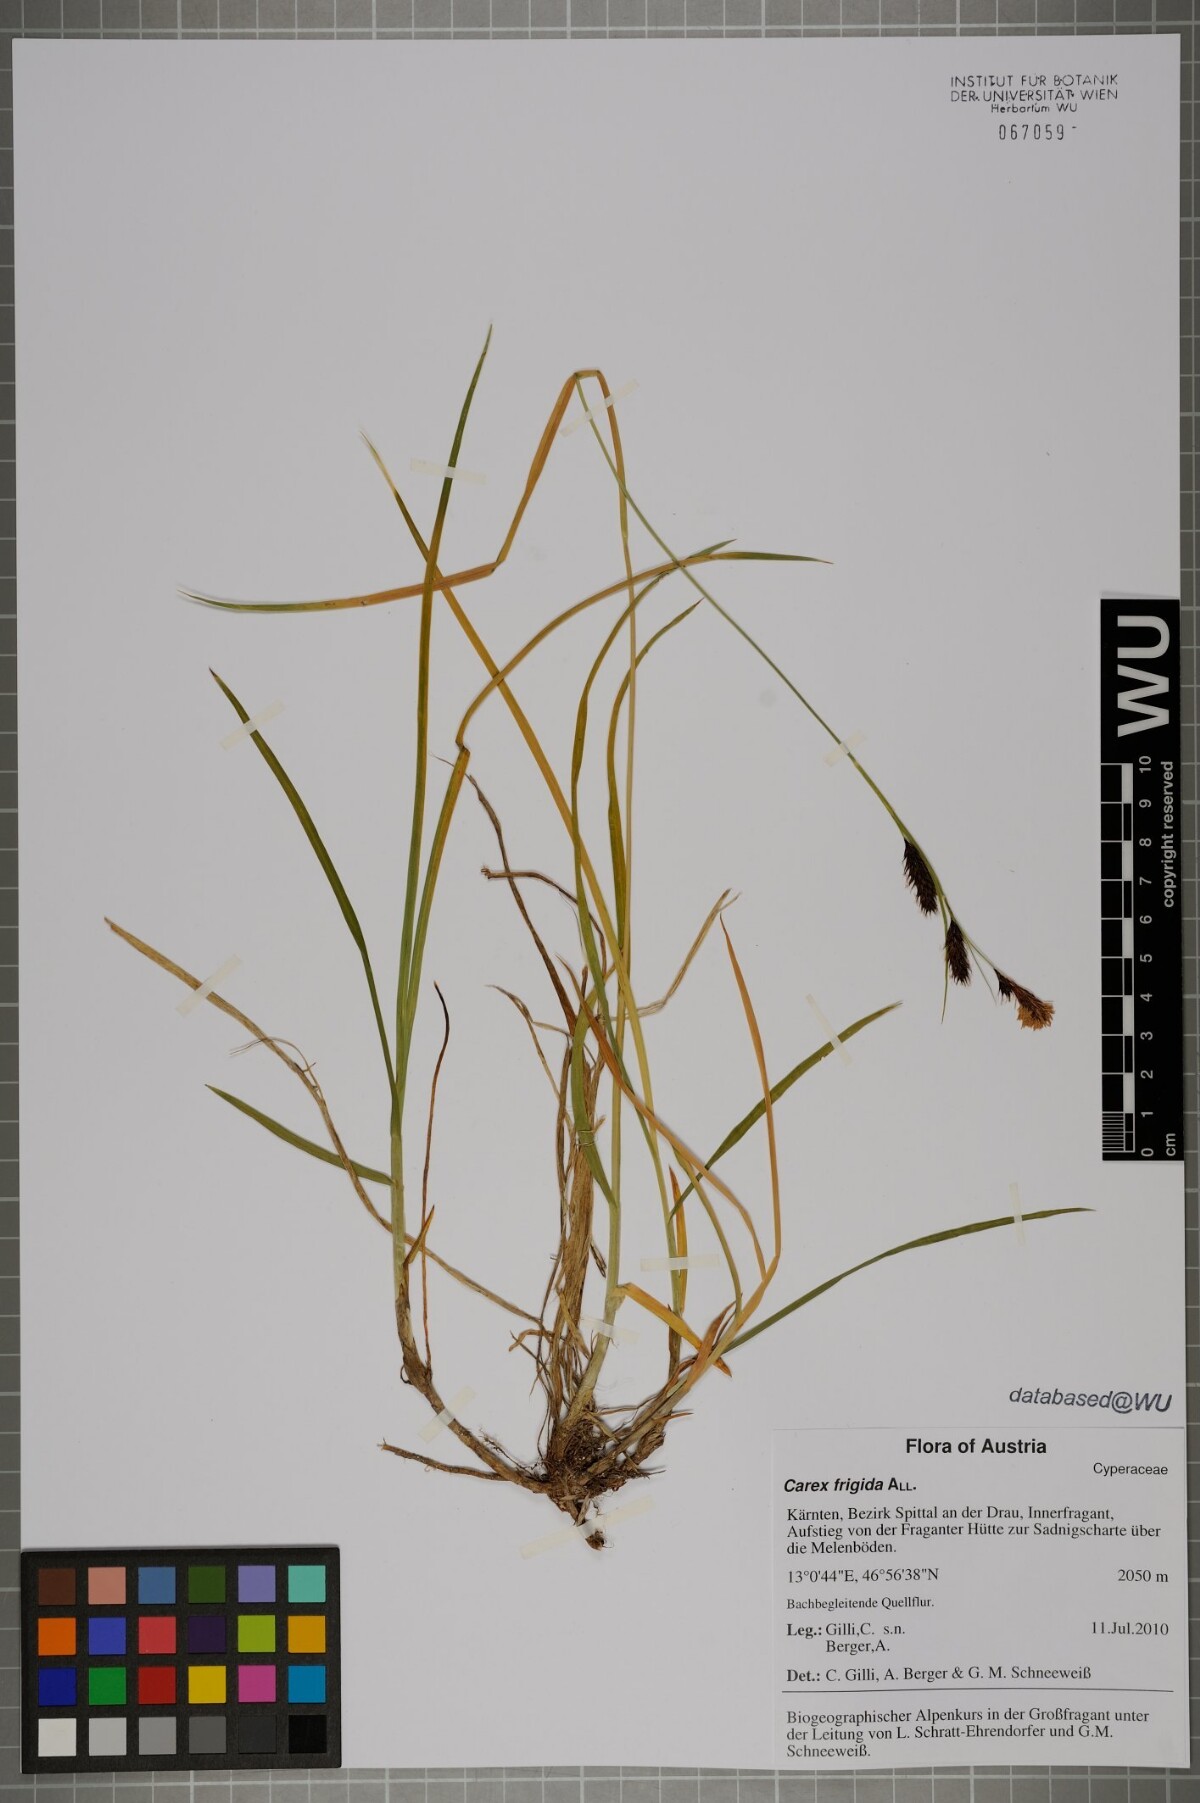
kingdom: Plantae
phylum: Tracheophyta
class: Liliopsida
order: Poales
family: Cyperaceae
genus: Carex
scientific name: Carex frigida
